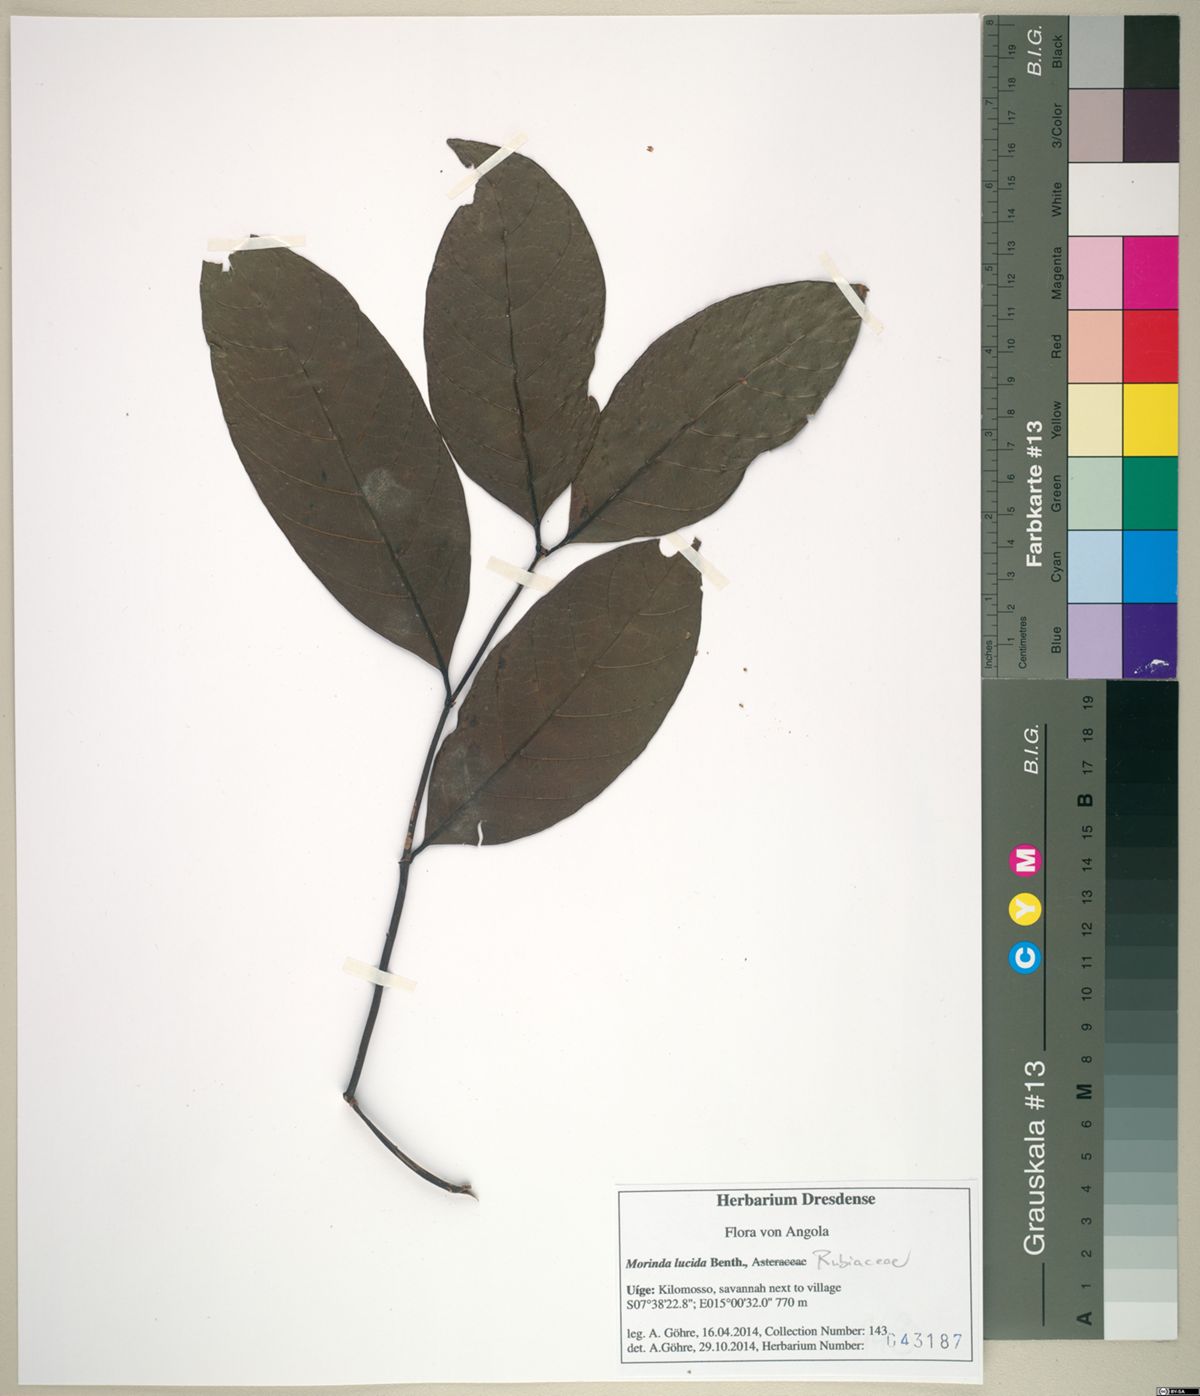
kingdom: Plantae
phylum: Tracheophyta
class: Magnoliopsida
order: Gentianales
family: Rubiaceae
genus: Morinda
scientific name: Morinda lucida
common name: Brimstonetree
